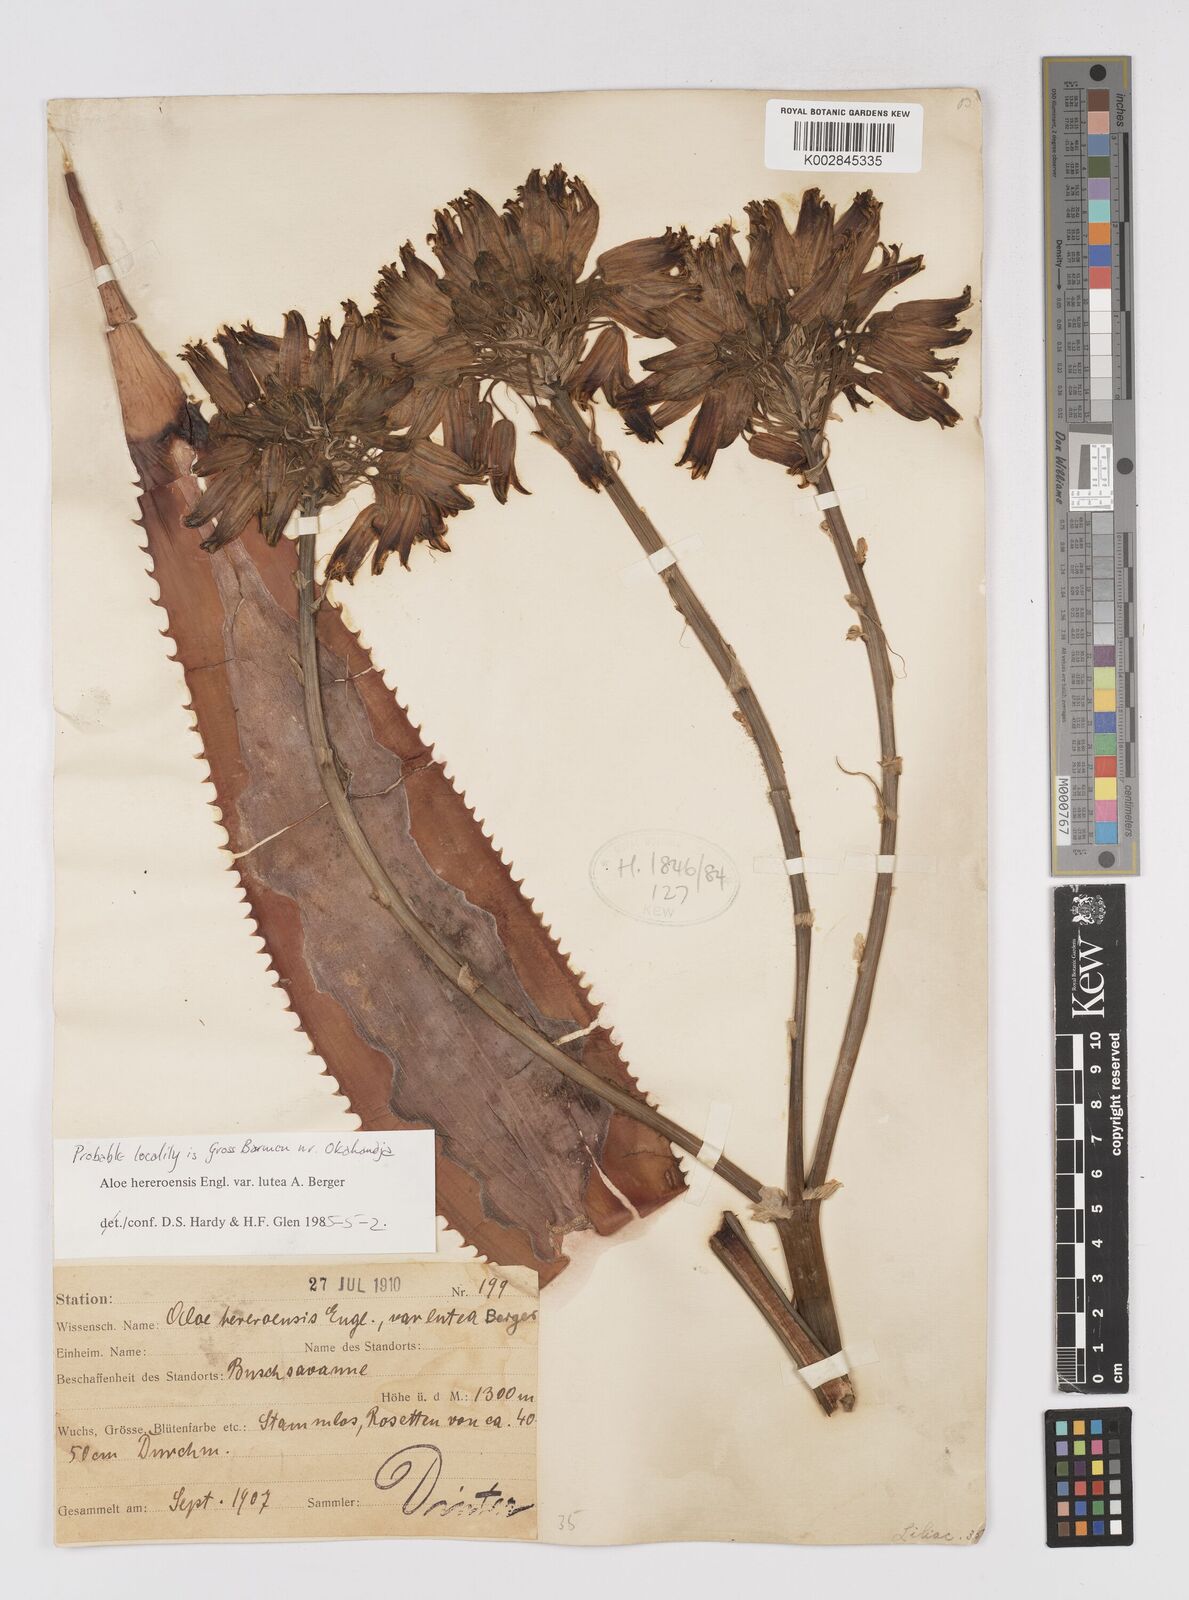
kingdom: Plantae
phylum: Tracheophyta
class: Liliopsida
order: Asparagales
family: Asphodelaceae
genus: Aloe
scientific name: Aloe hereroensis
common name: Herero aloe
